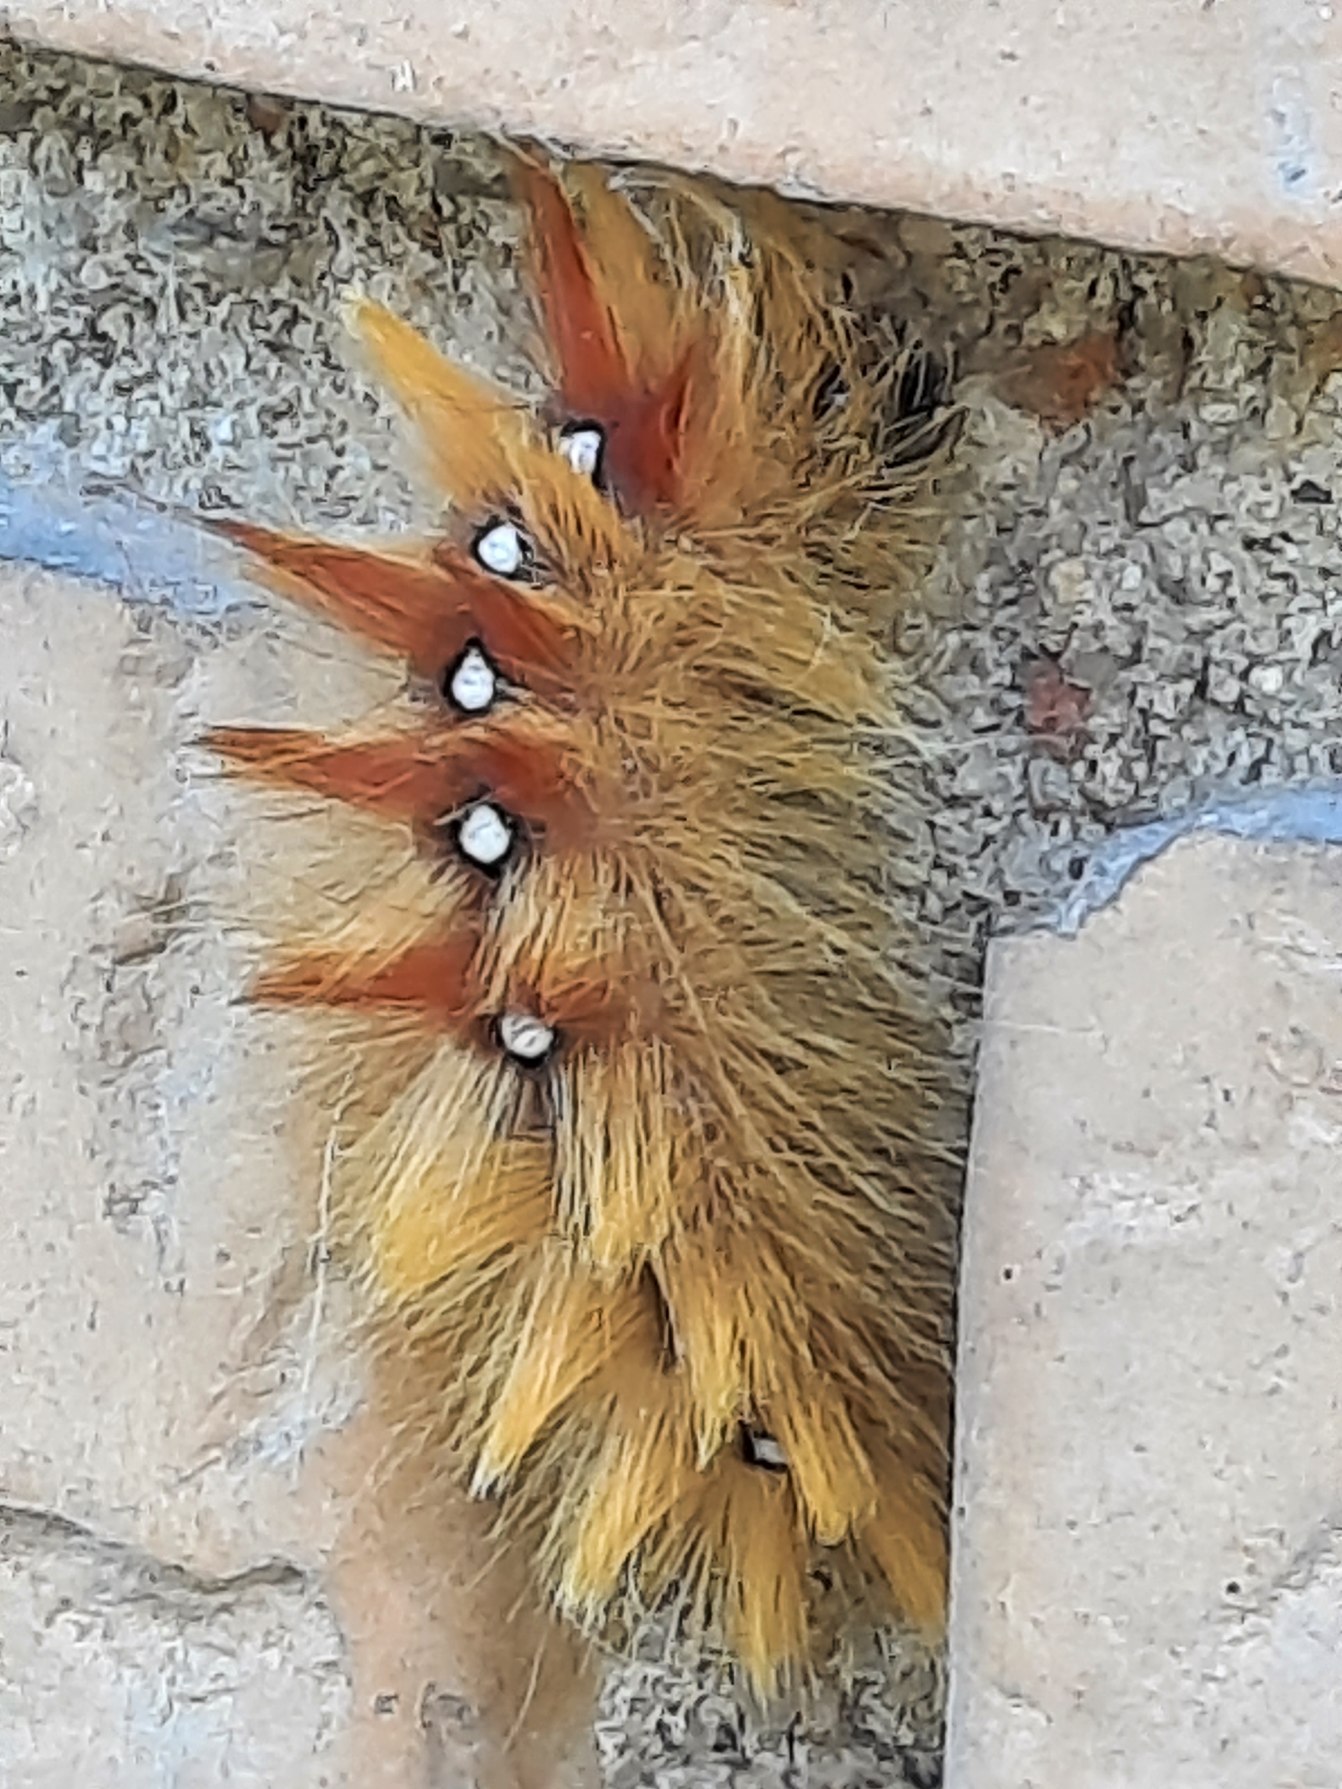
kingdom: Animalia
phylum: Arthropoda
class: Insecta
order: Lepidoptera
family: Noctuidae
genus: Acronicta
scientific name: Acronicta aceris
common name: Ahornugle
